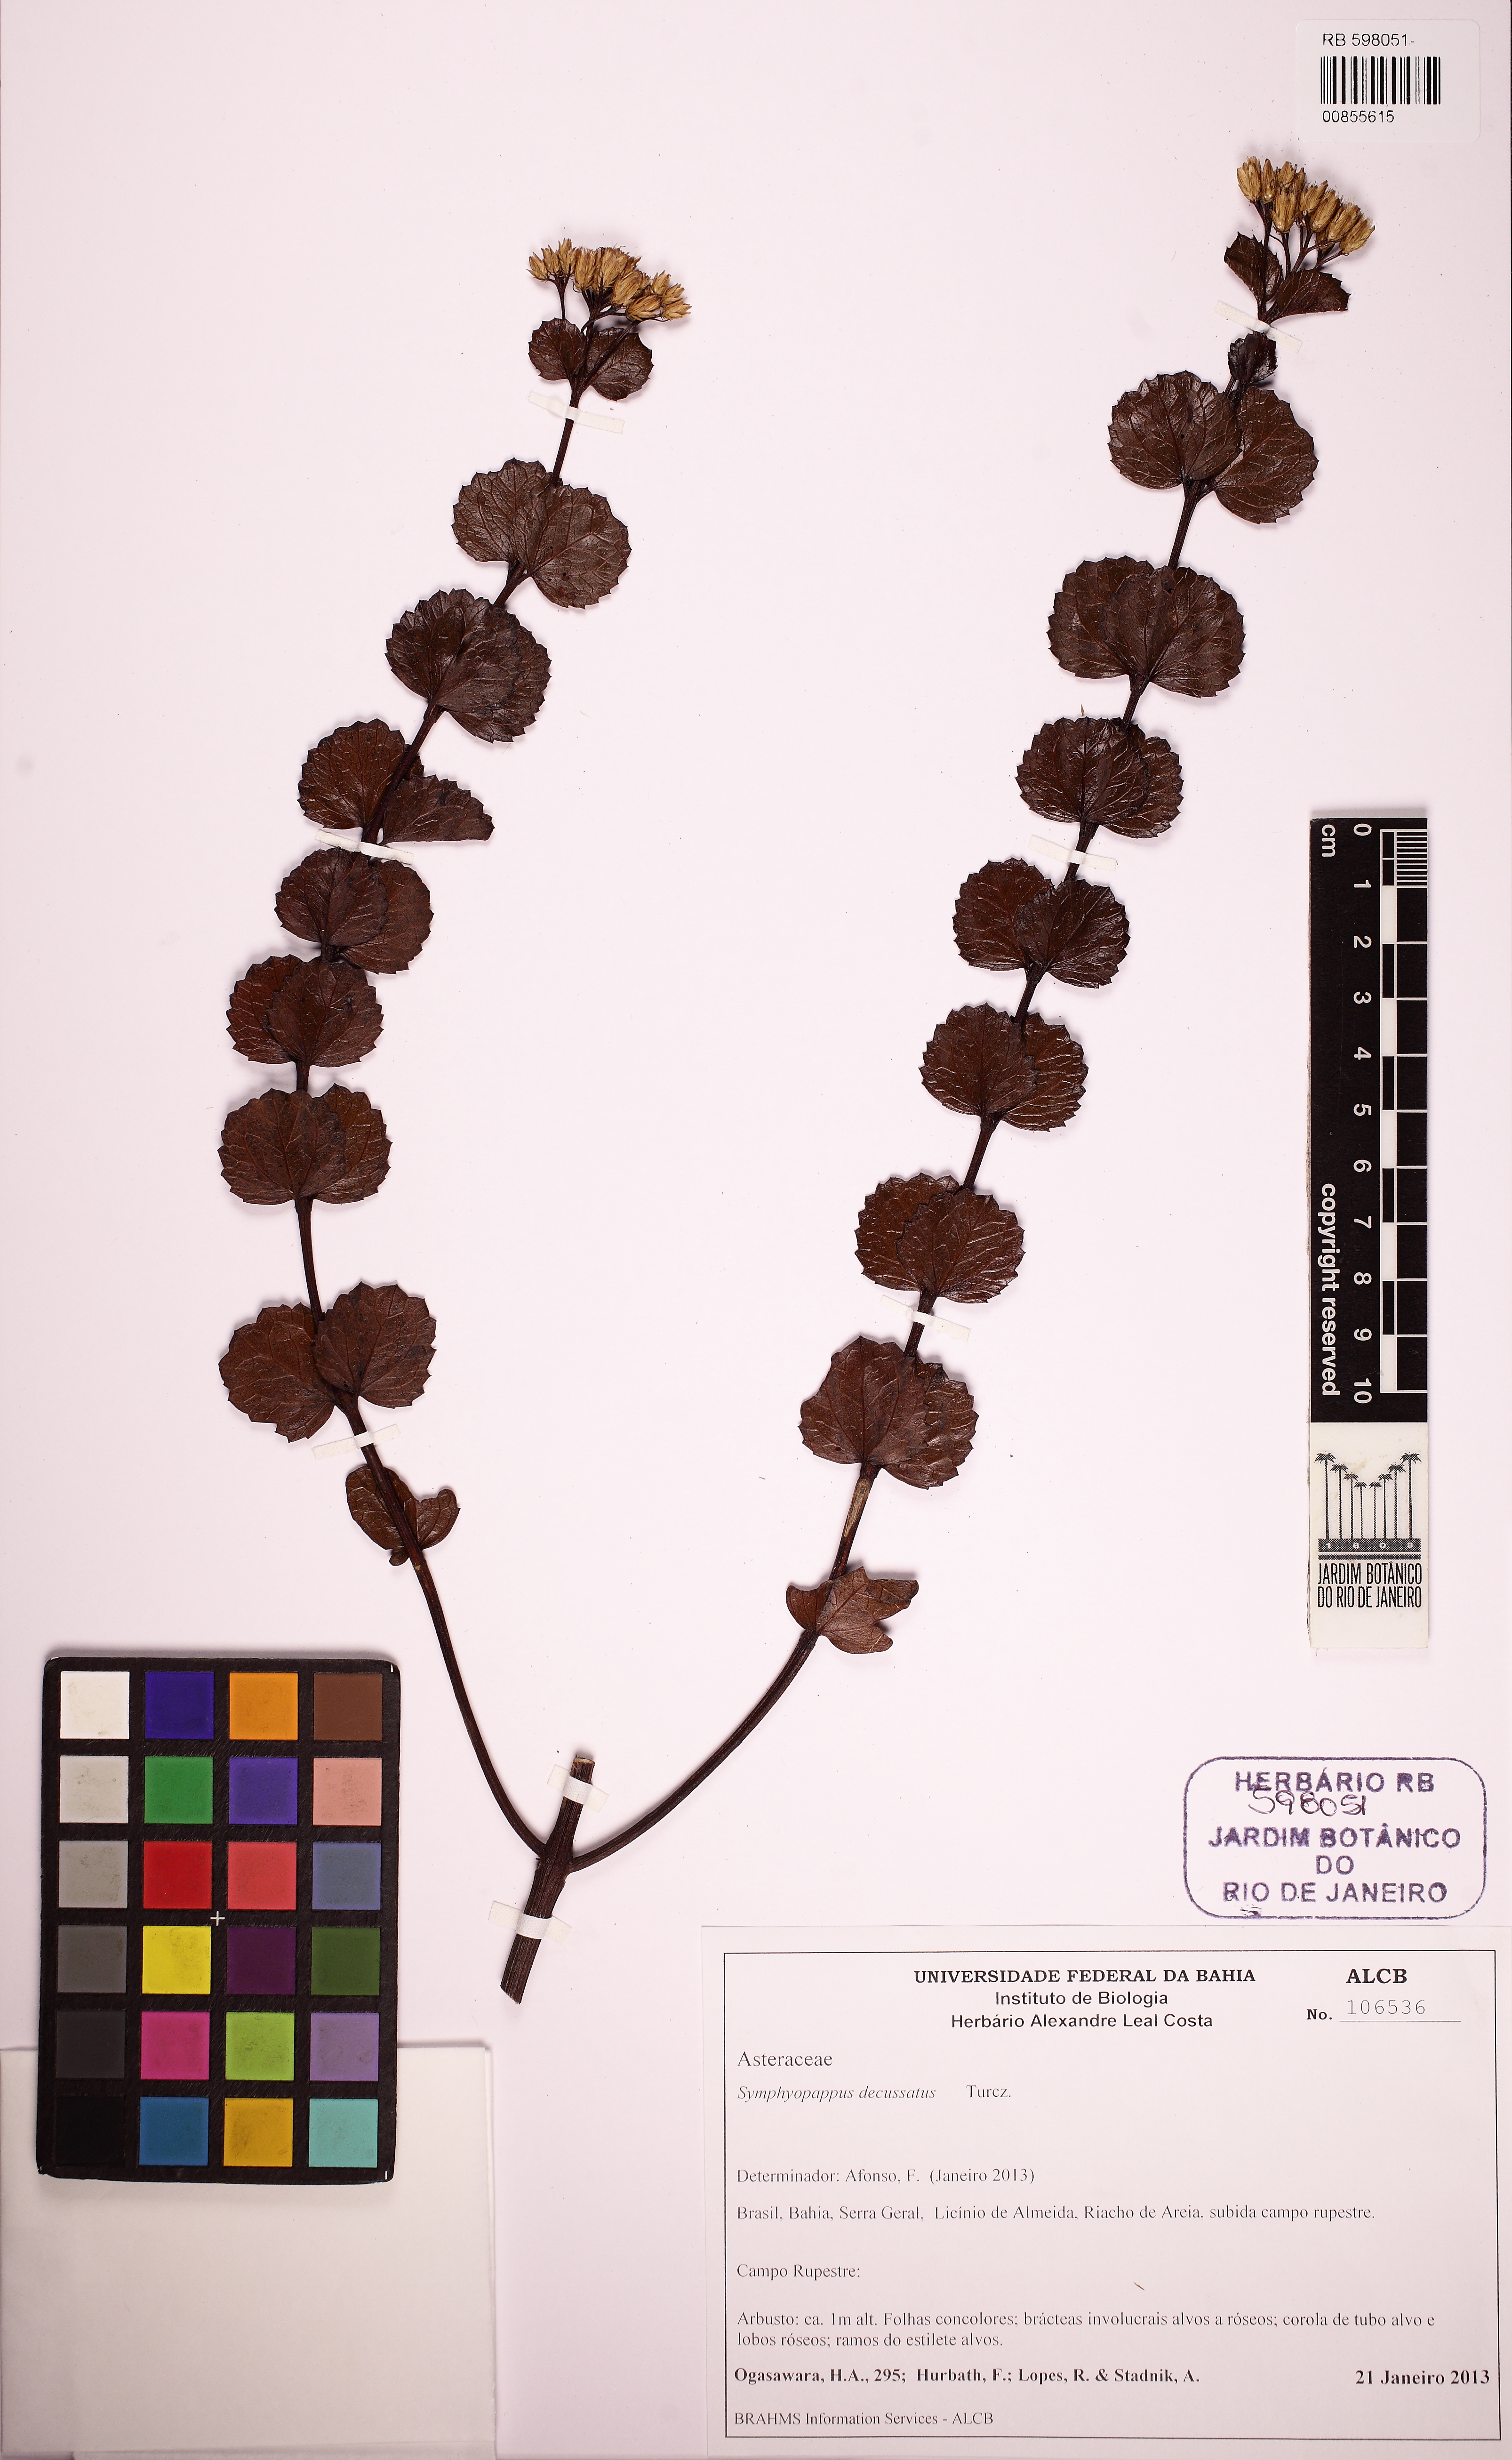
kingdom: Plantae
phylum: Tracheophyta
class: Magnoliopsida
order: Asterales
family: Asteraceae
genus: Symphyopappus
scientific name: Symphyopappus decussatus
